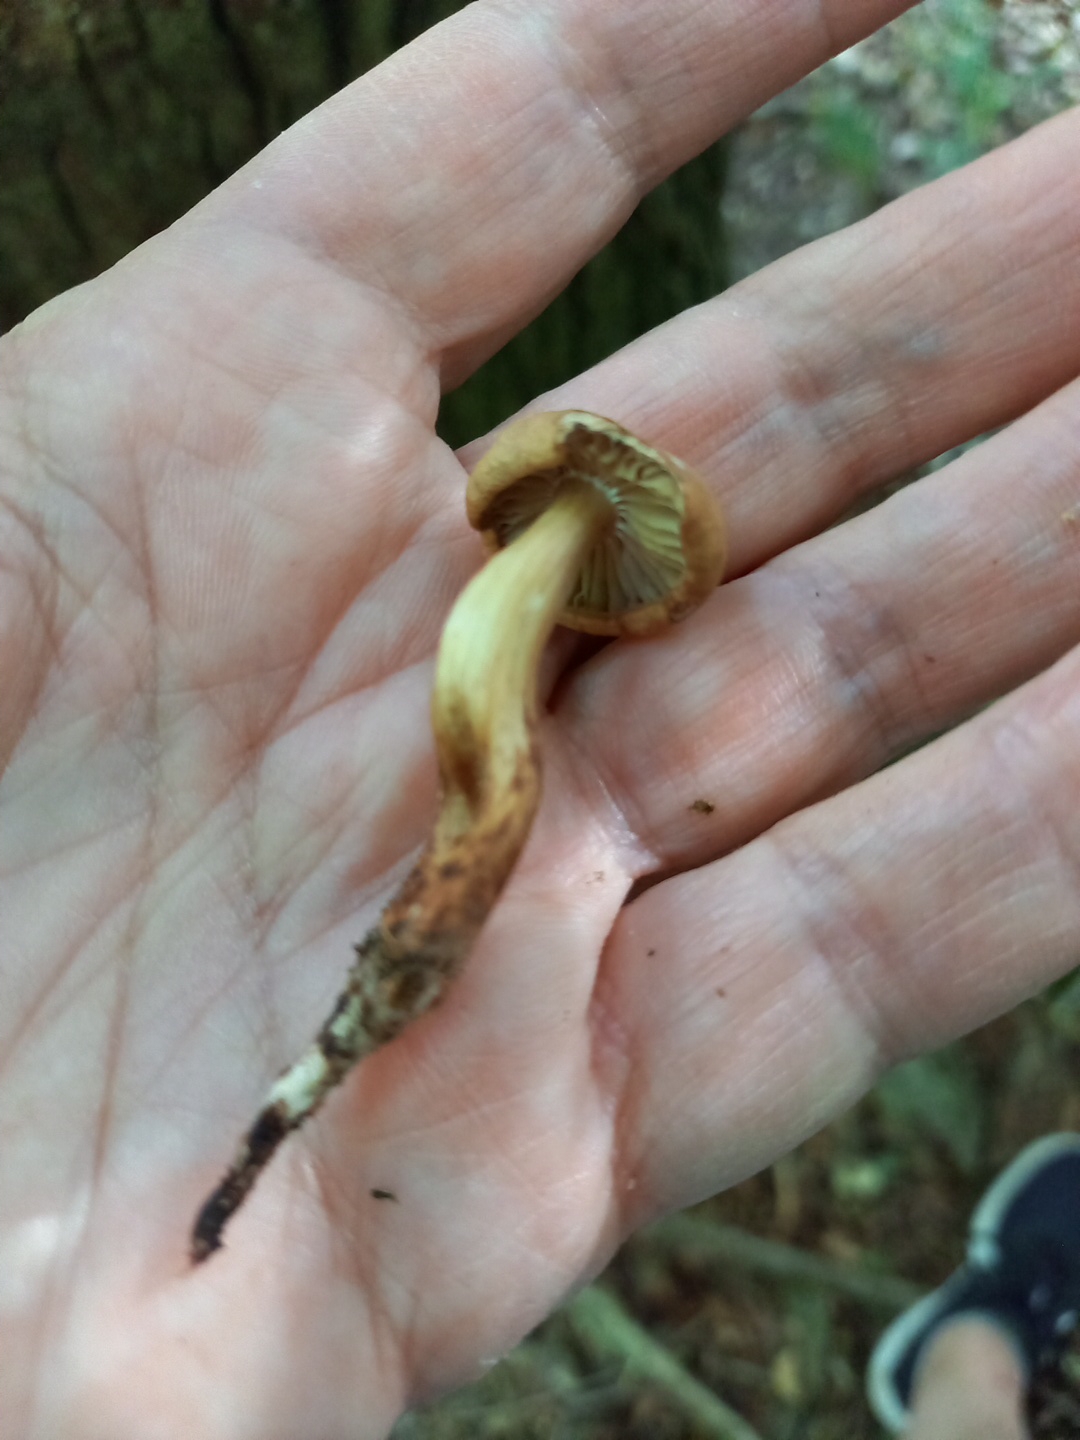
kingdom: Fungi
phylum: Basidiomycota
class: Agaricomycetes
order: Agaricales
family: Omphalotaceae
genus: Gymnopus
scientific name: Gymnopus fusipes
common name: tenstokket fladhat
